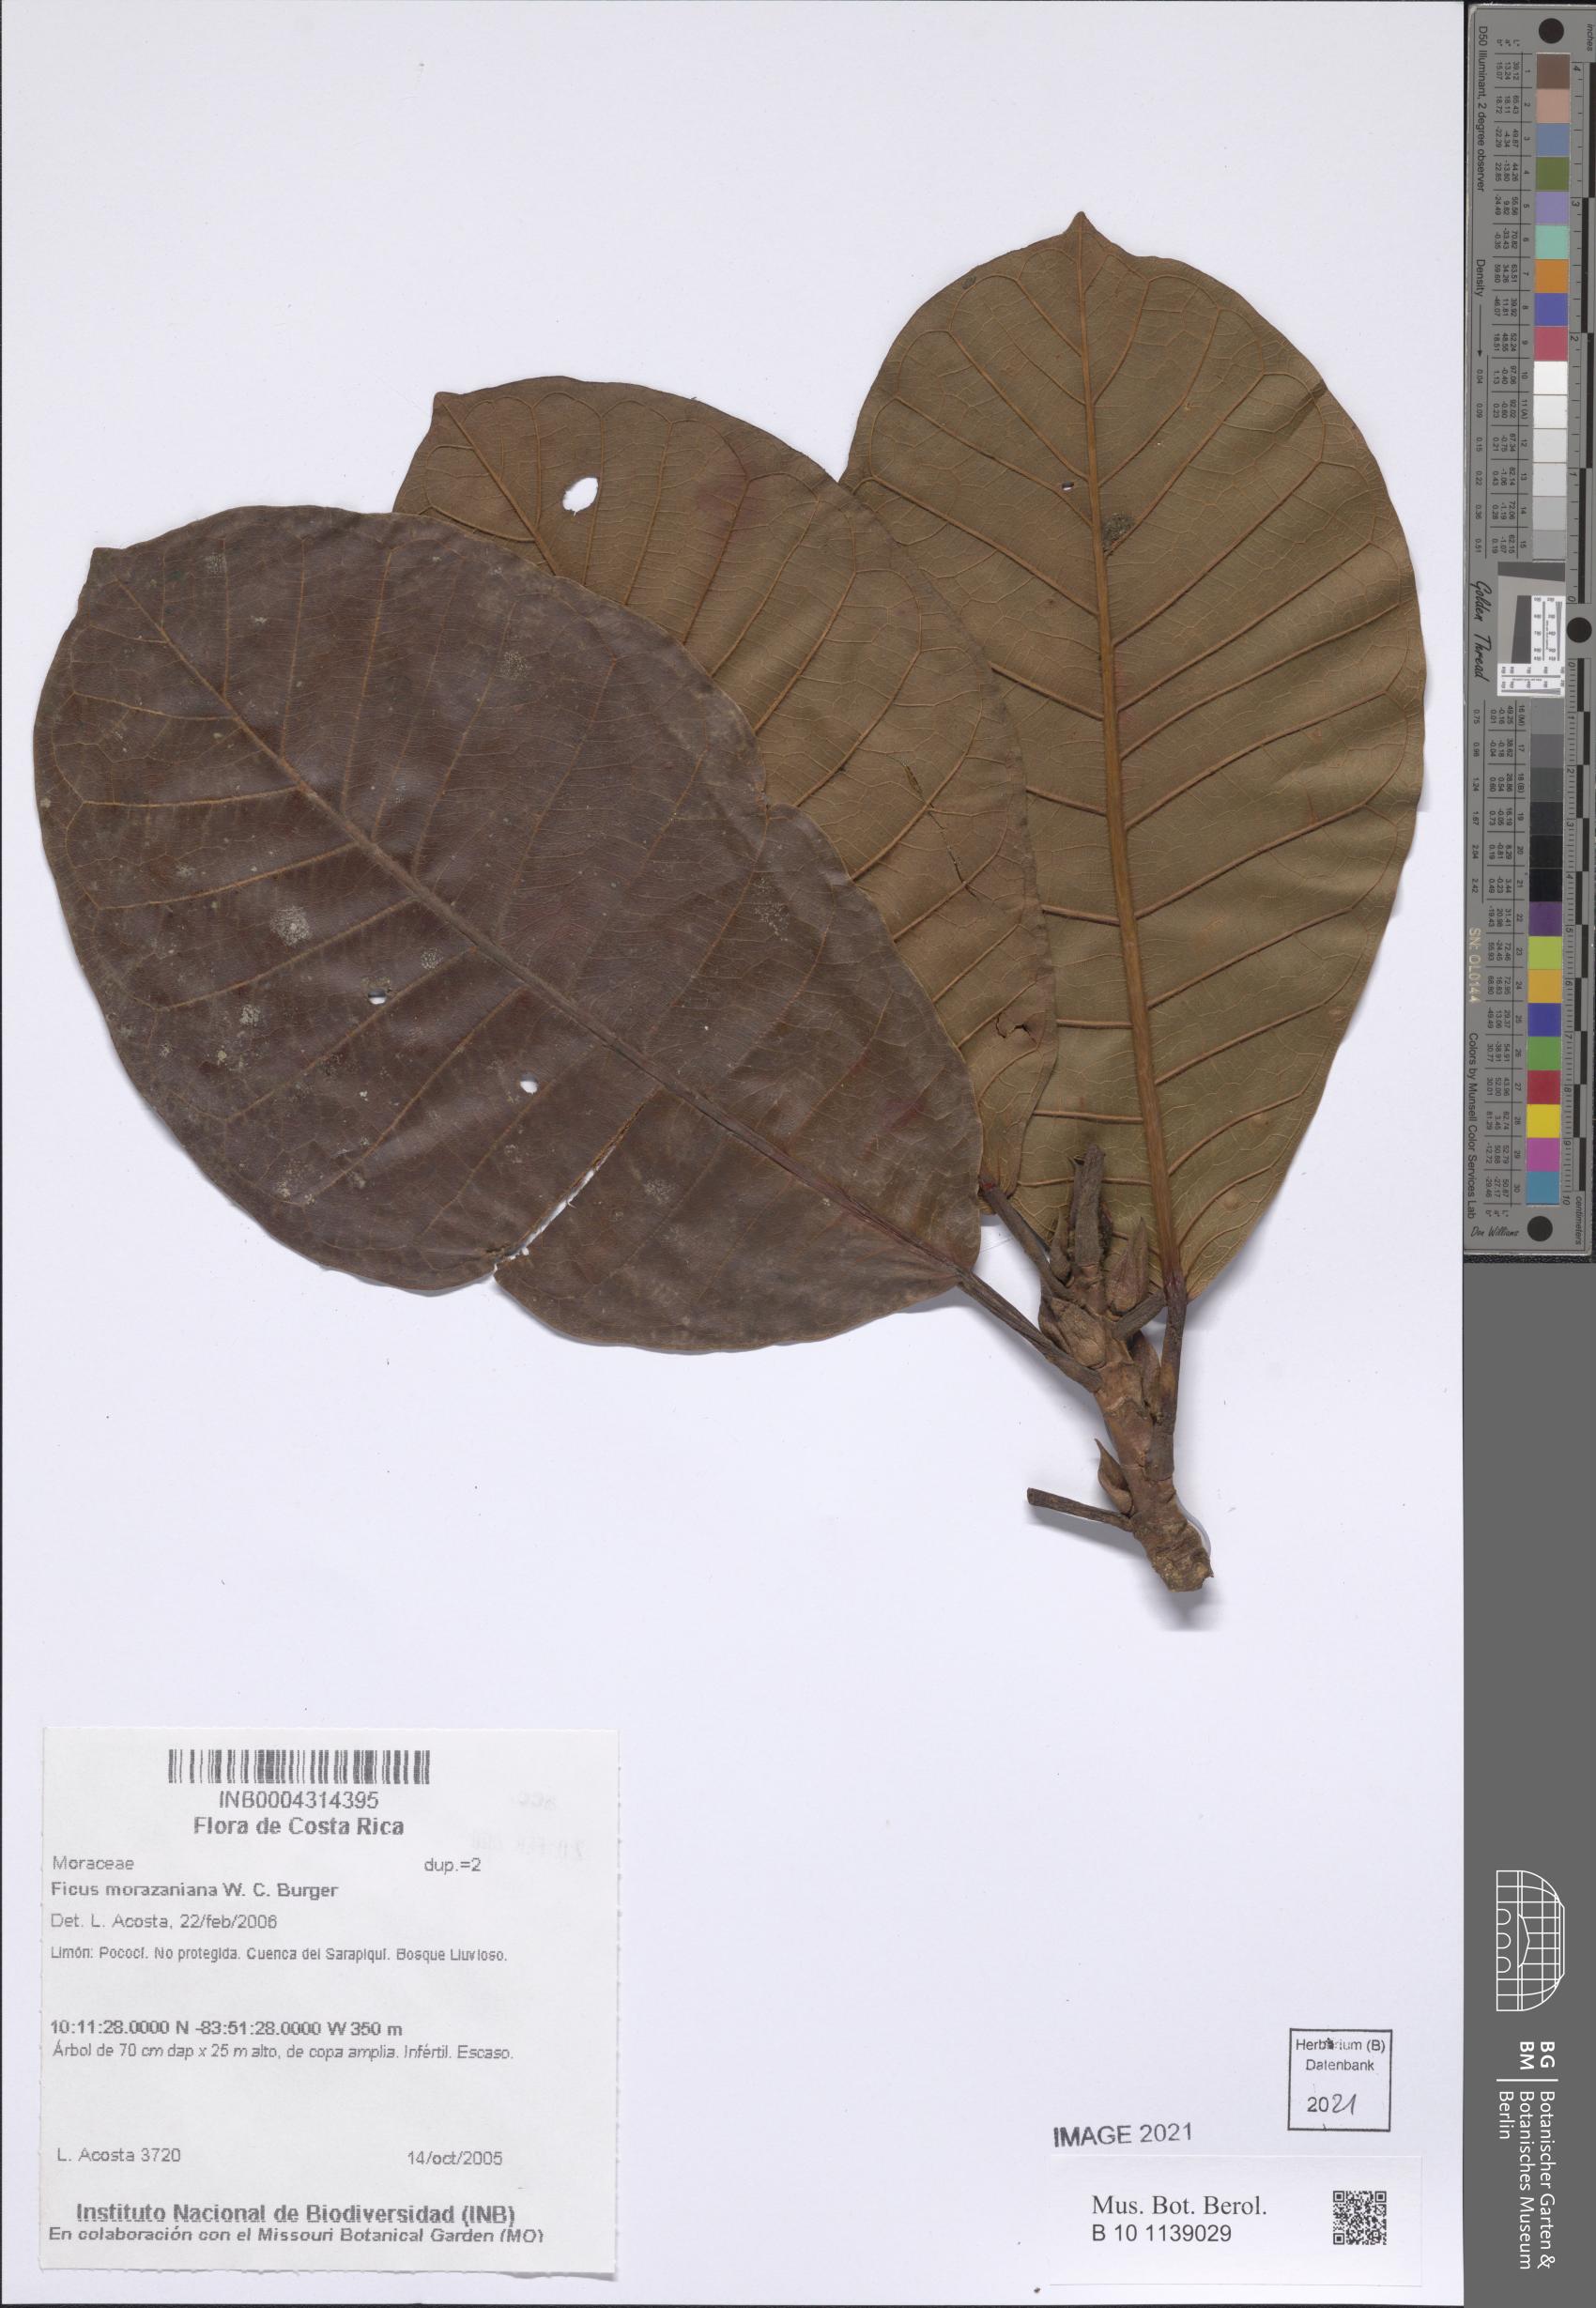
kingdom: Plantae
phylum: Tracheophyta
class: Magnoliopsida
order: Rosales
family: Moraceae
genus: Ficus
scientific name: Ficus crocata
